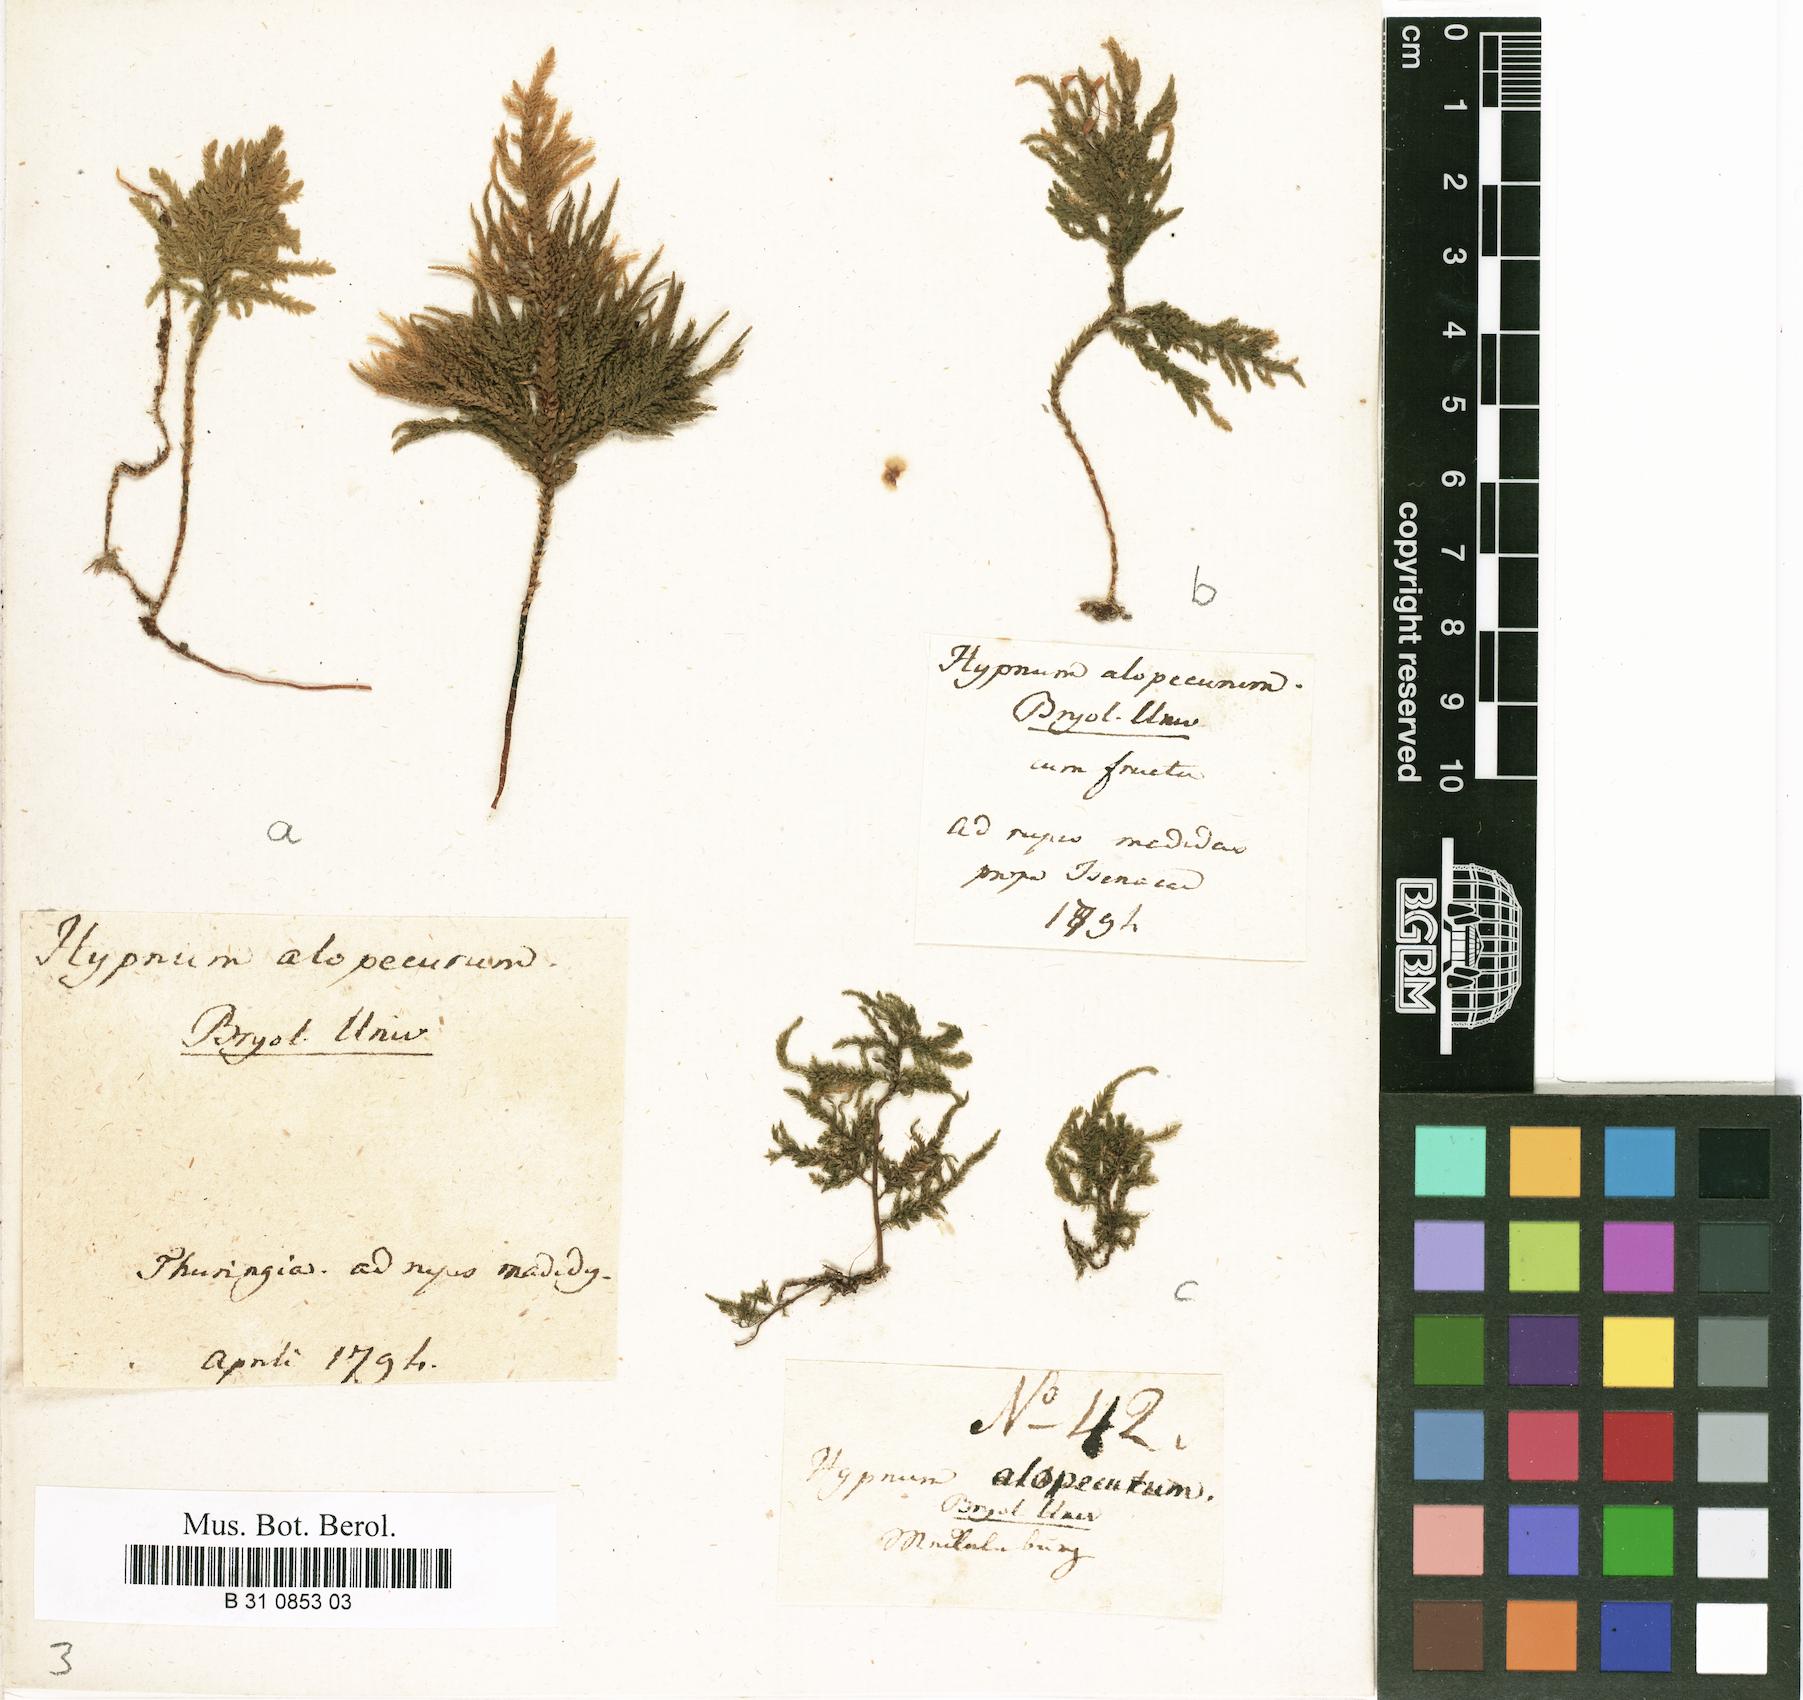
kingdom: Plantae
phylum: Bryophyta
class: Bryopsida
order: Hypnales
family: Neckeraceae
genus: Thamnobryum
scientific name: Thamnobryum alopecurum
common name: Fox-tail feather-moss
